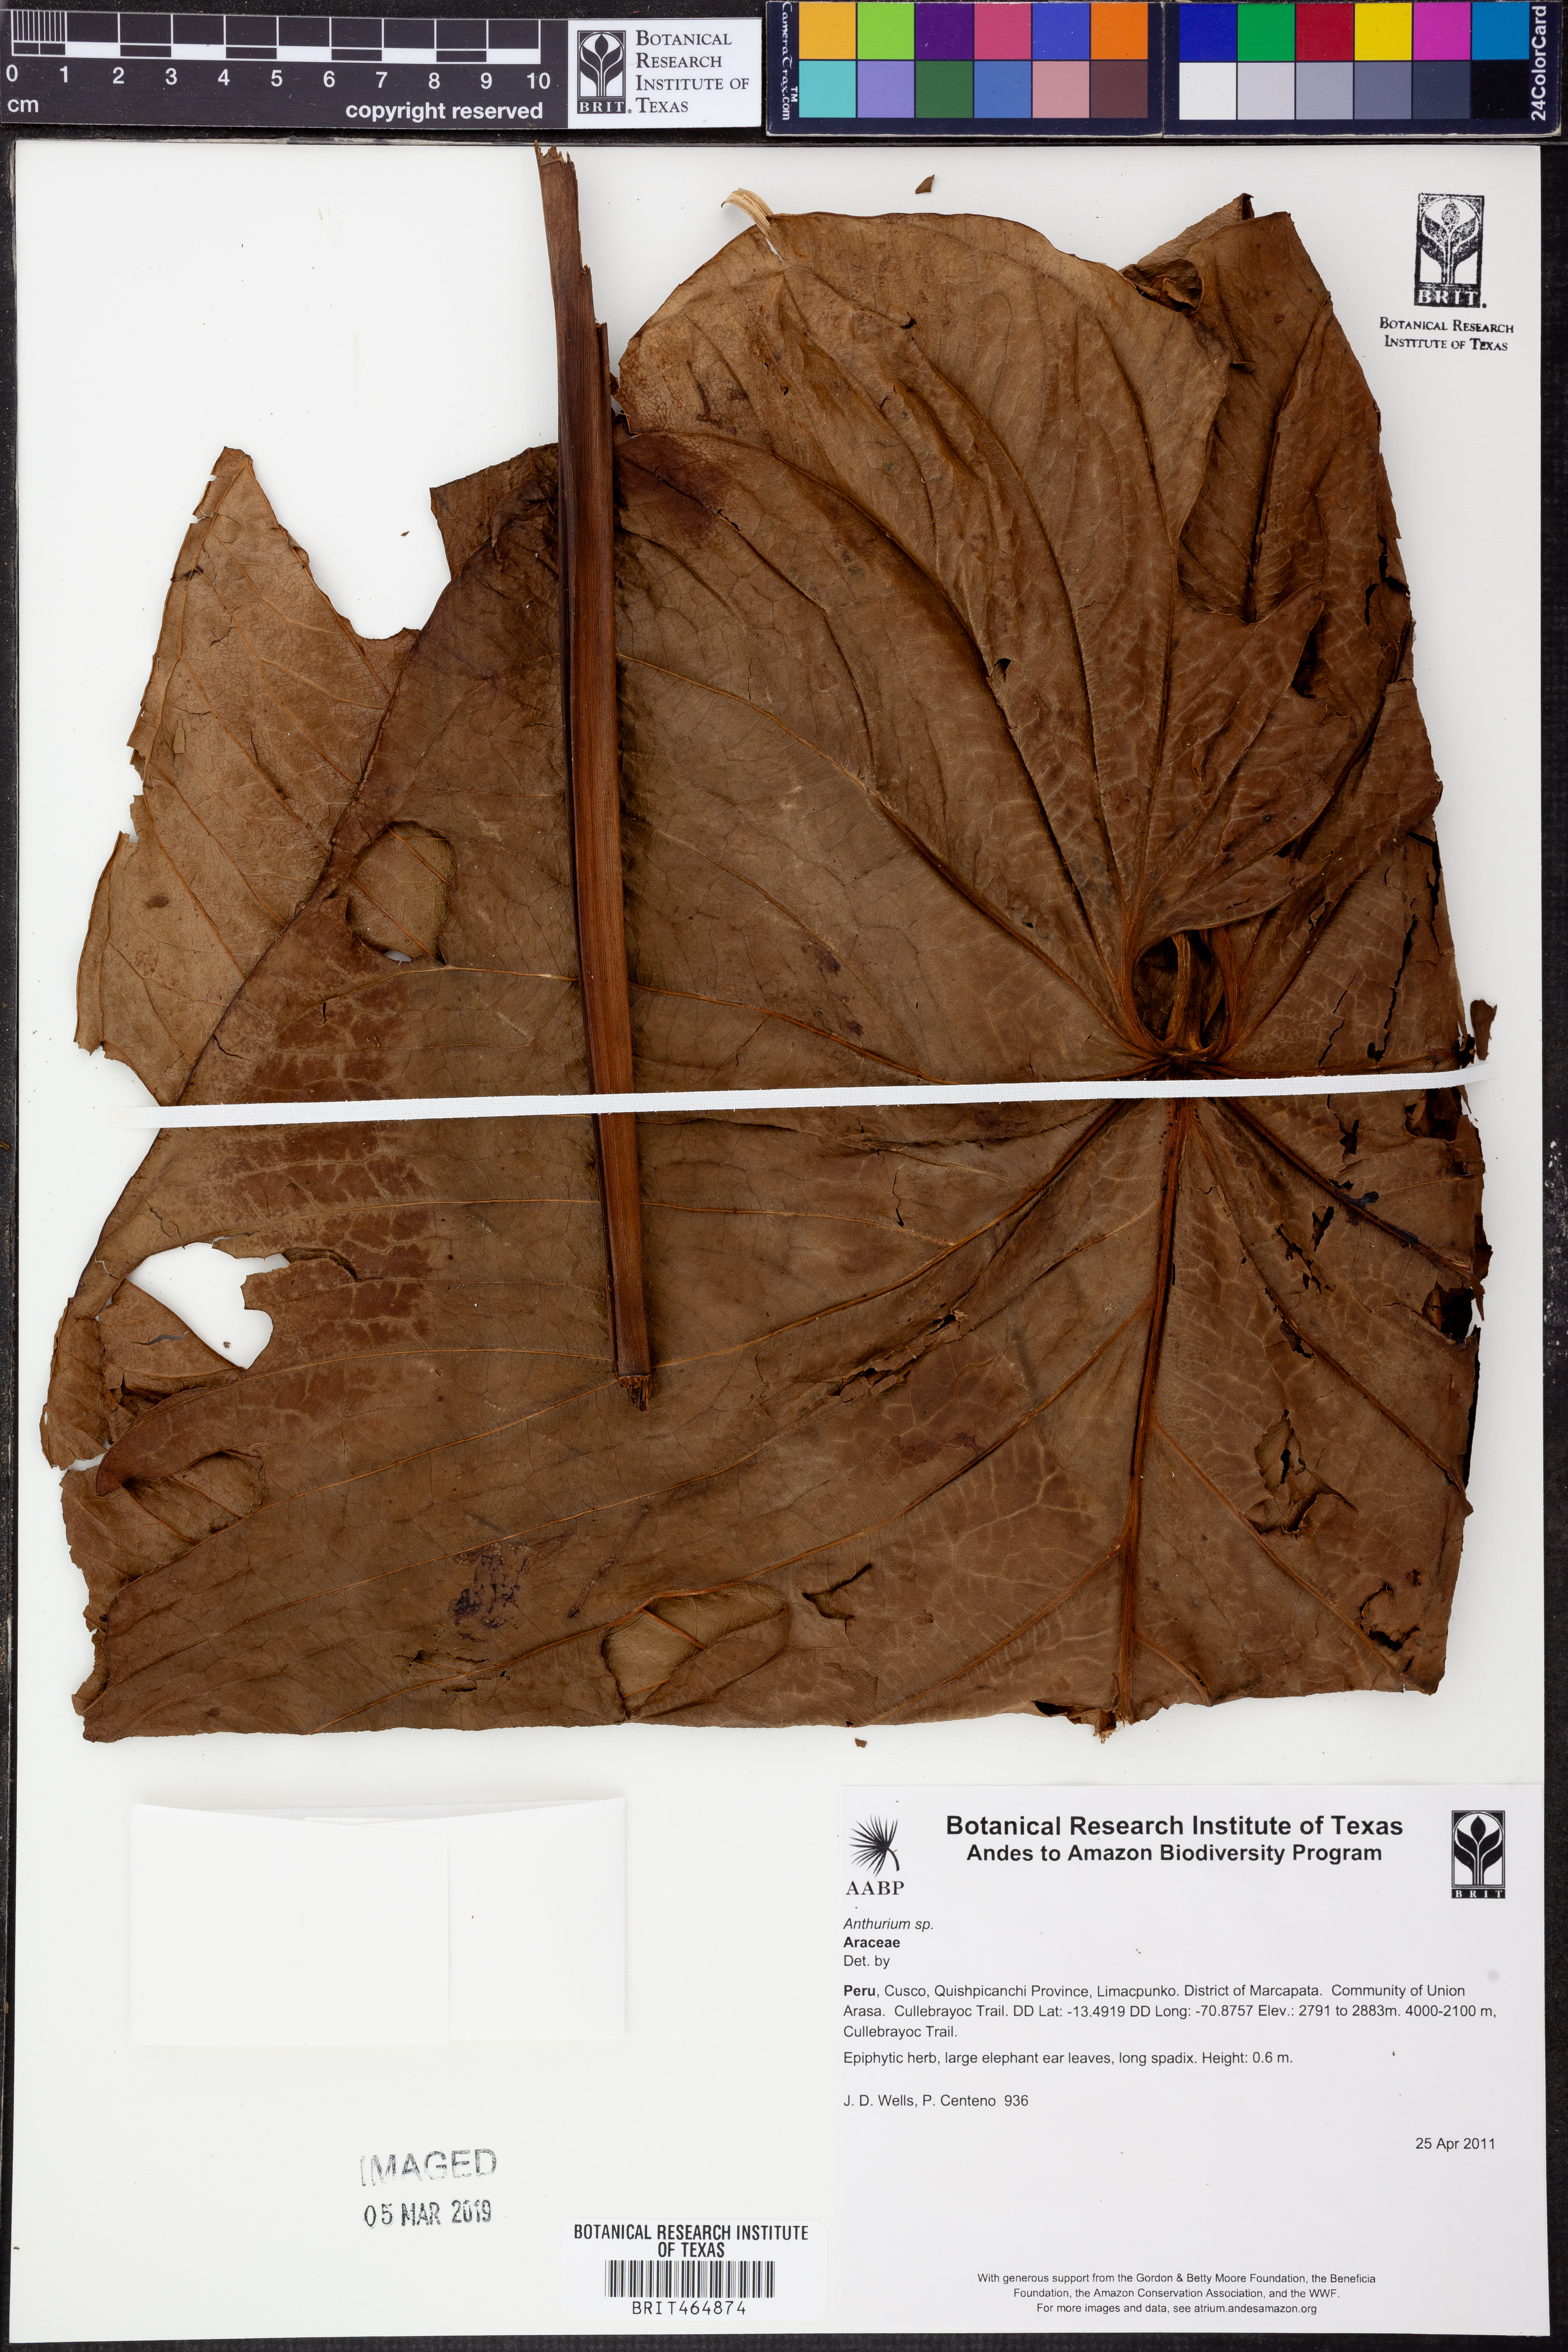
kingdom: Plantae
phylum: Tracheophyta
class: Liliopsida
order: Alismatales
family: Araceae
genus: Anthurium
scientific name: Anthurium
